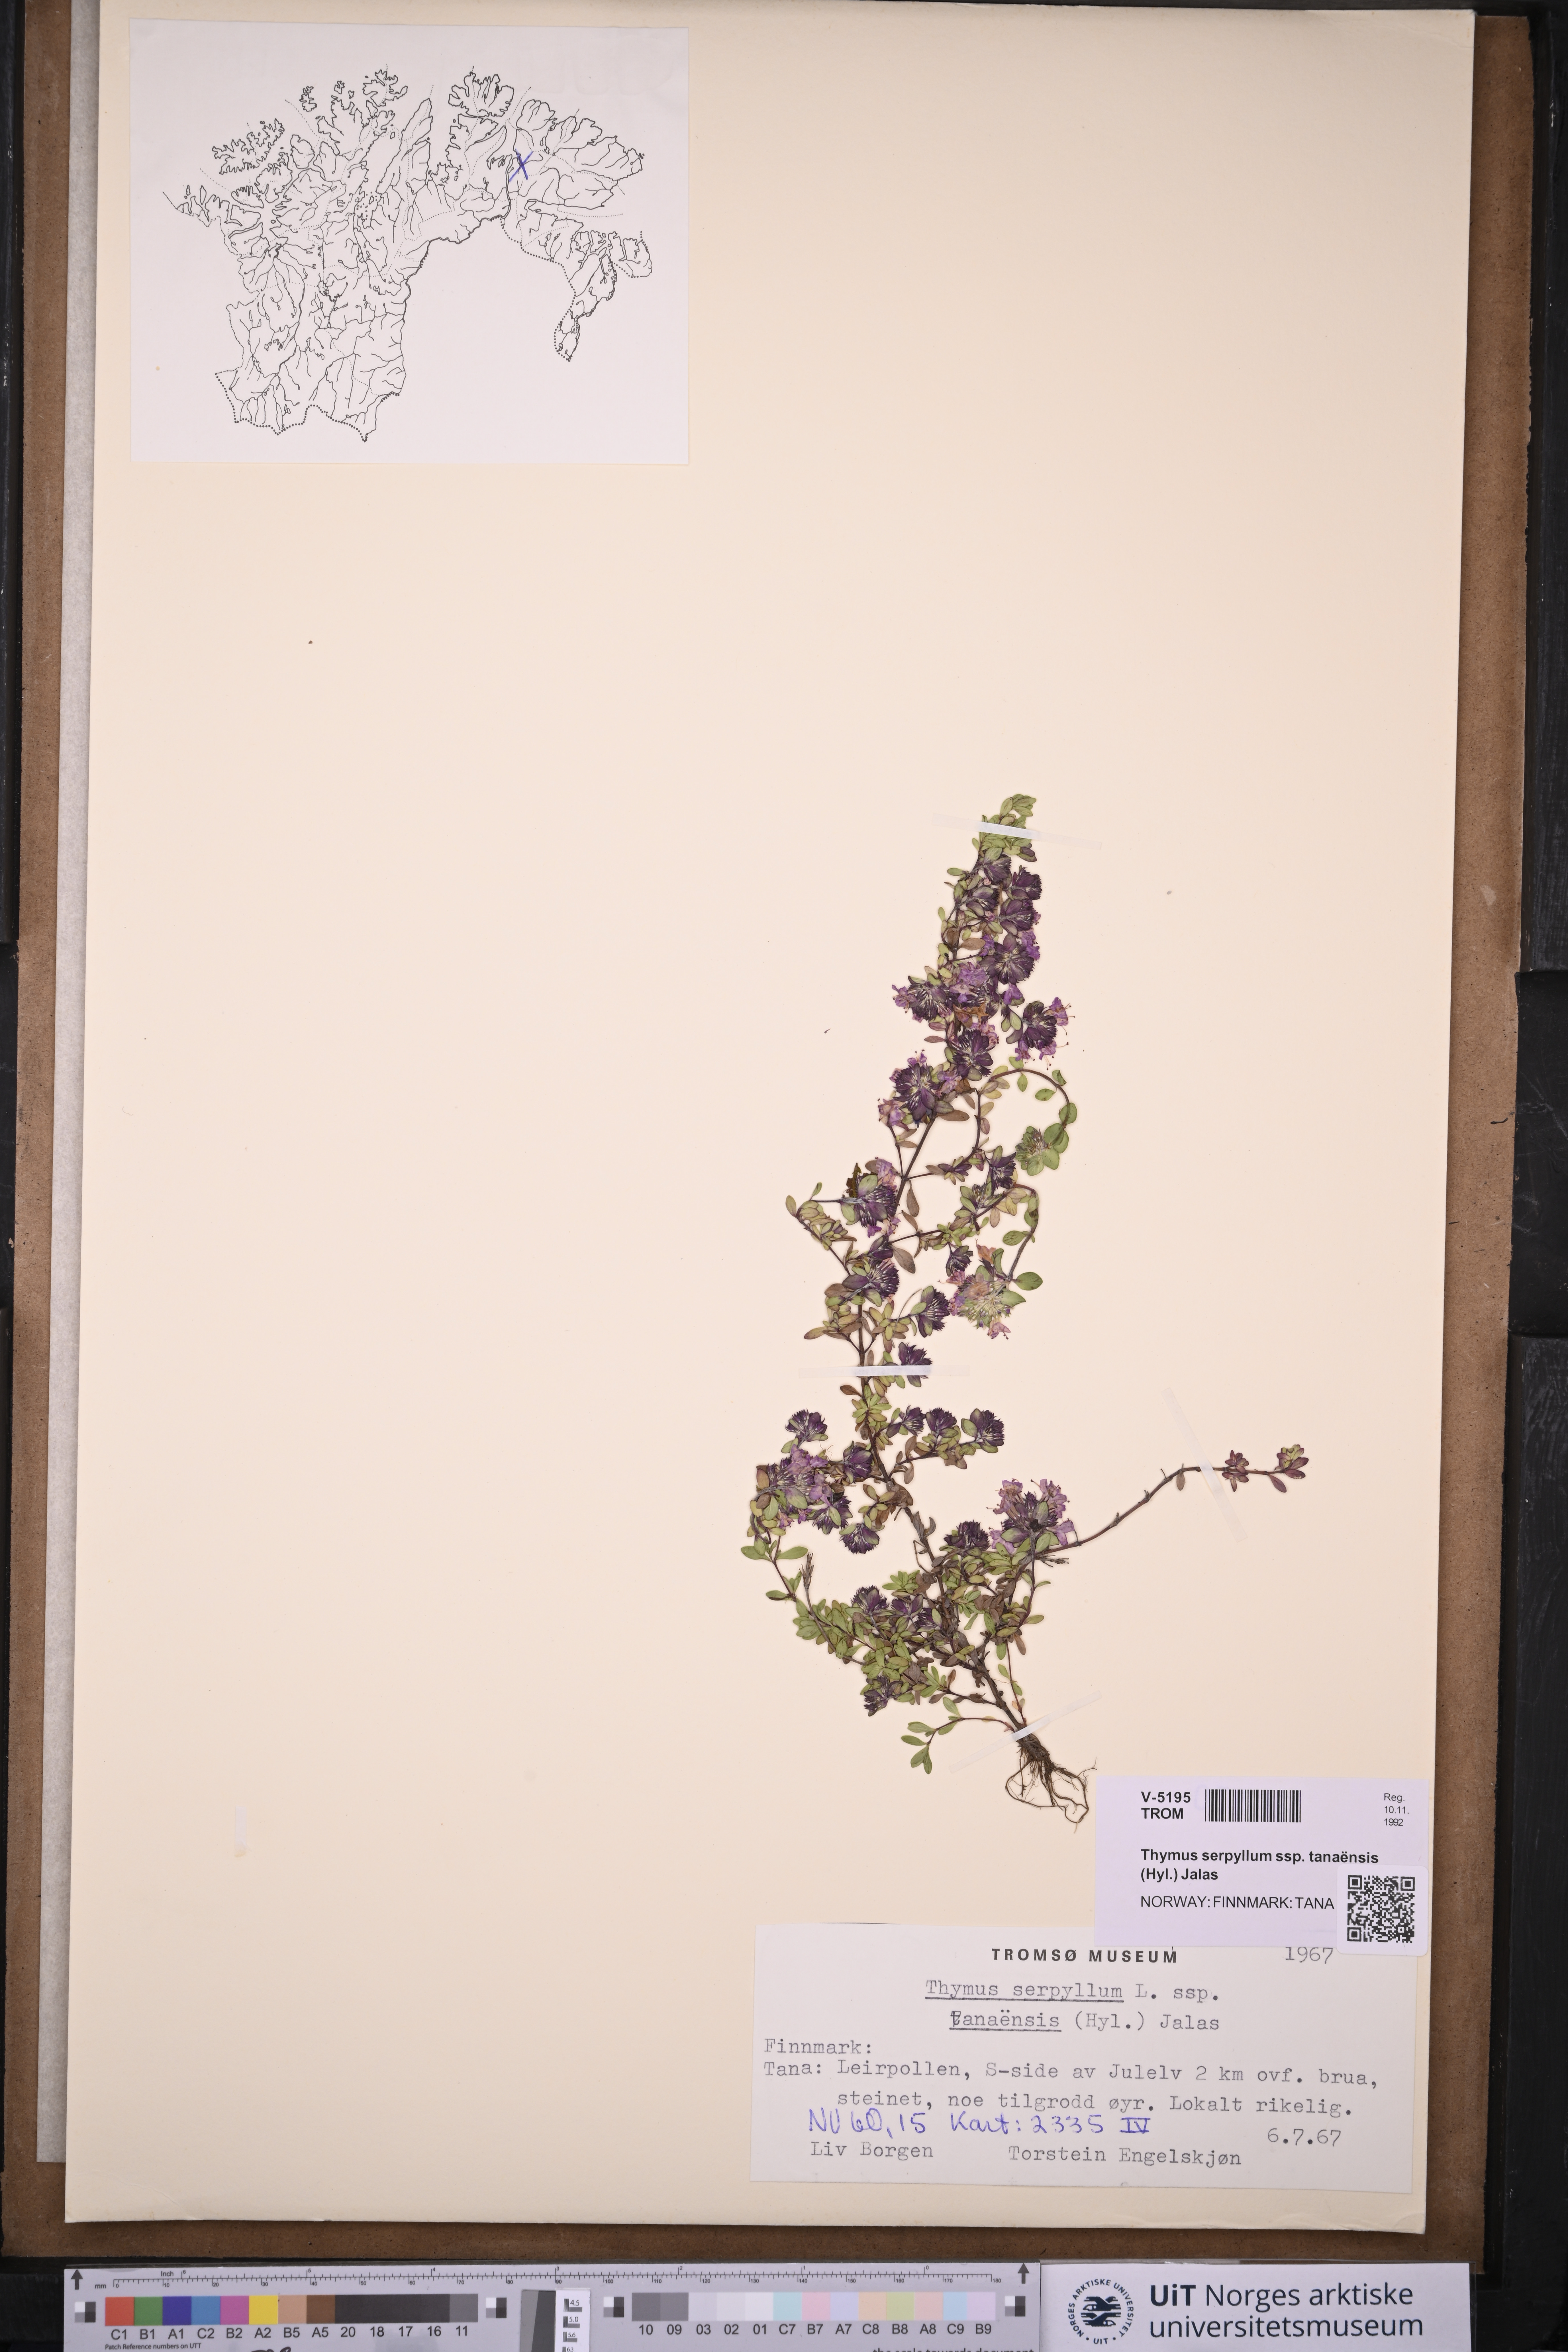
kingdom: Plantae
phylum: Tracheophyta
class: Magnoliopsida
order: Lamiales
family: Lamiaceae
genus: Thymus
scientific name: Thymus serpyllum
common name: Breckland thyme
